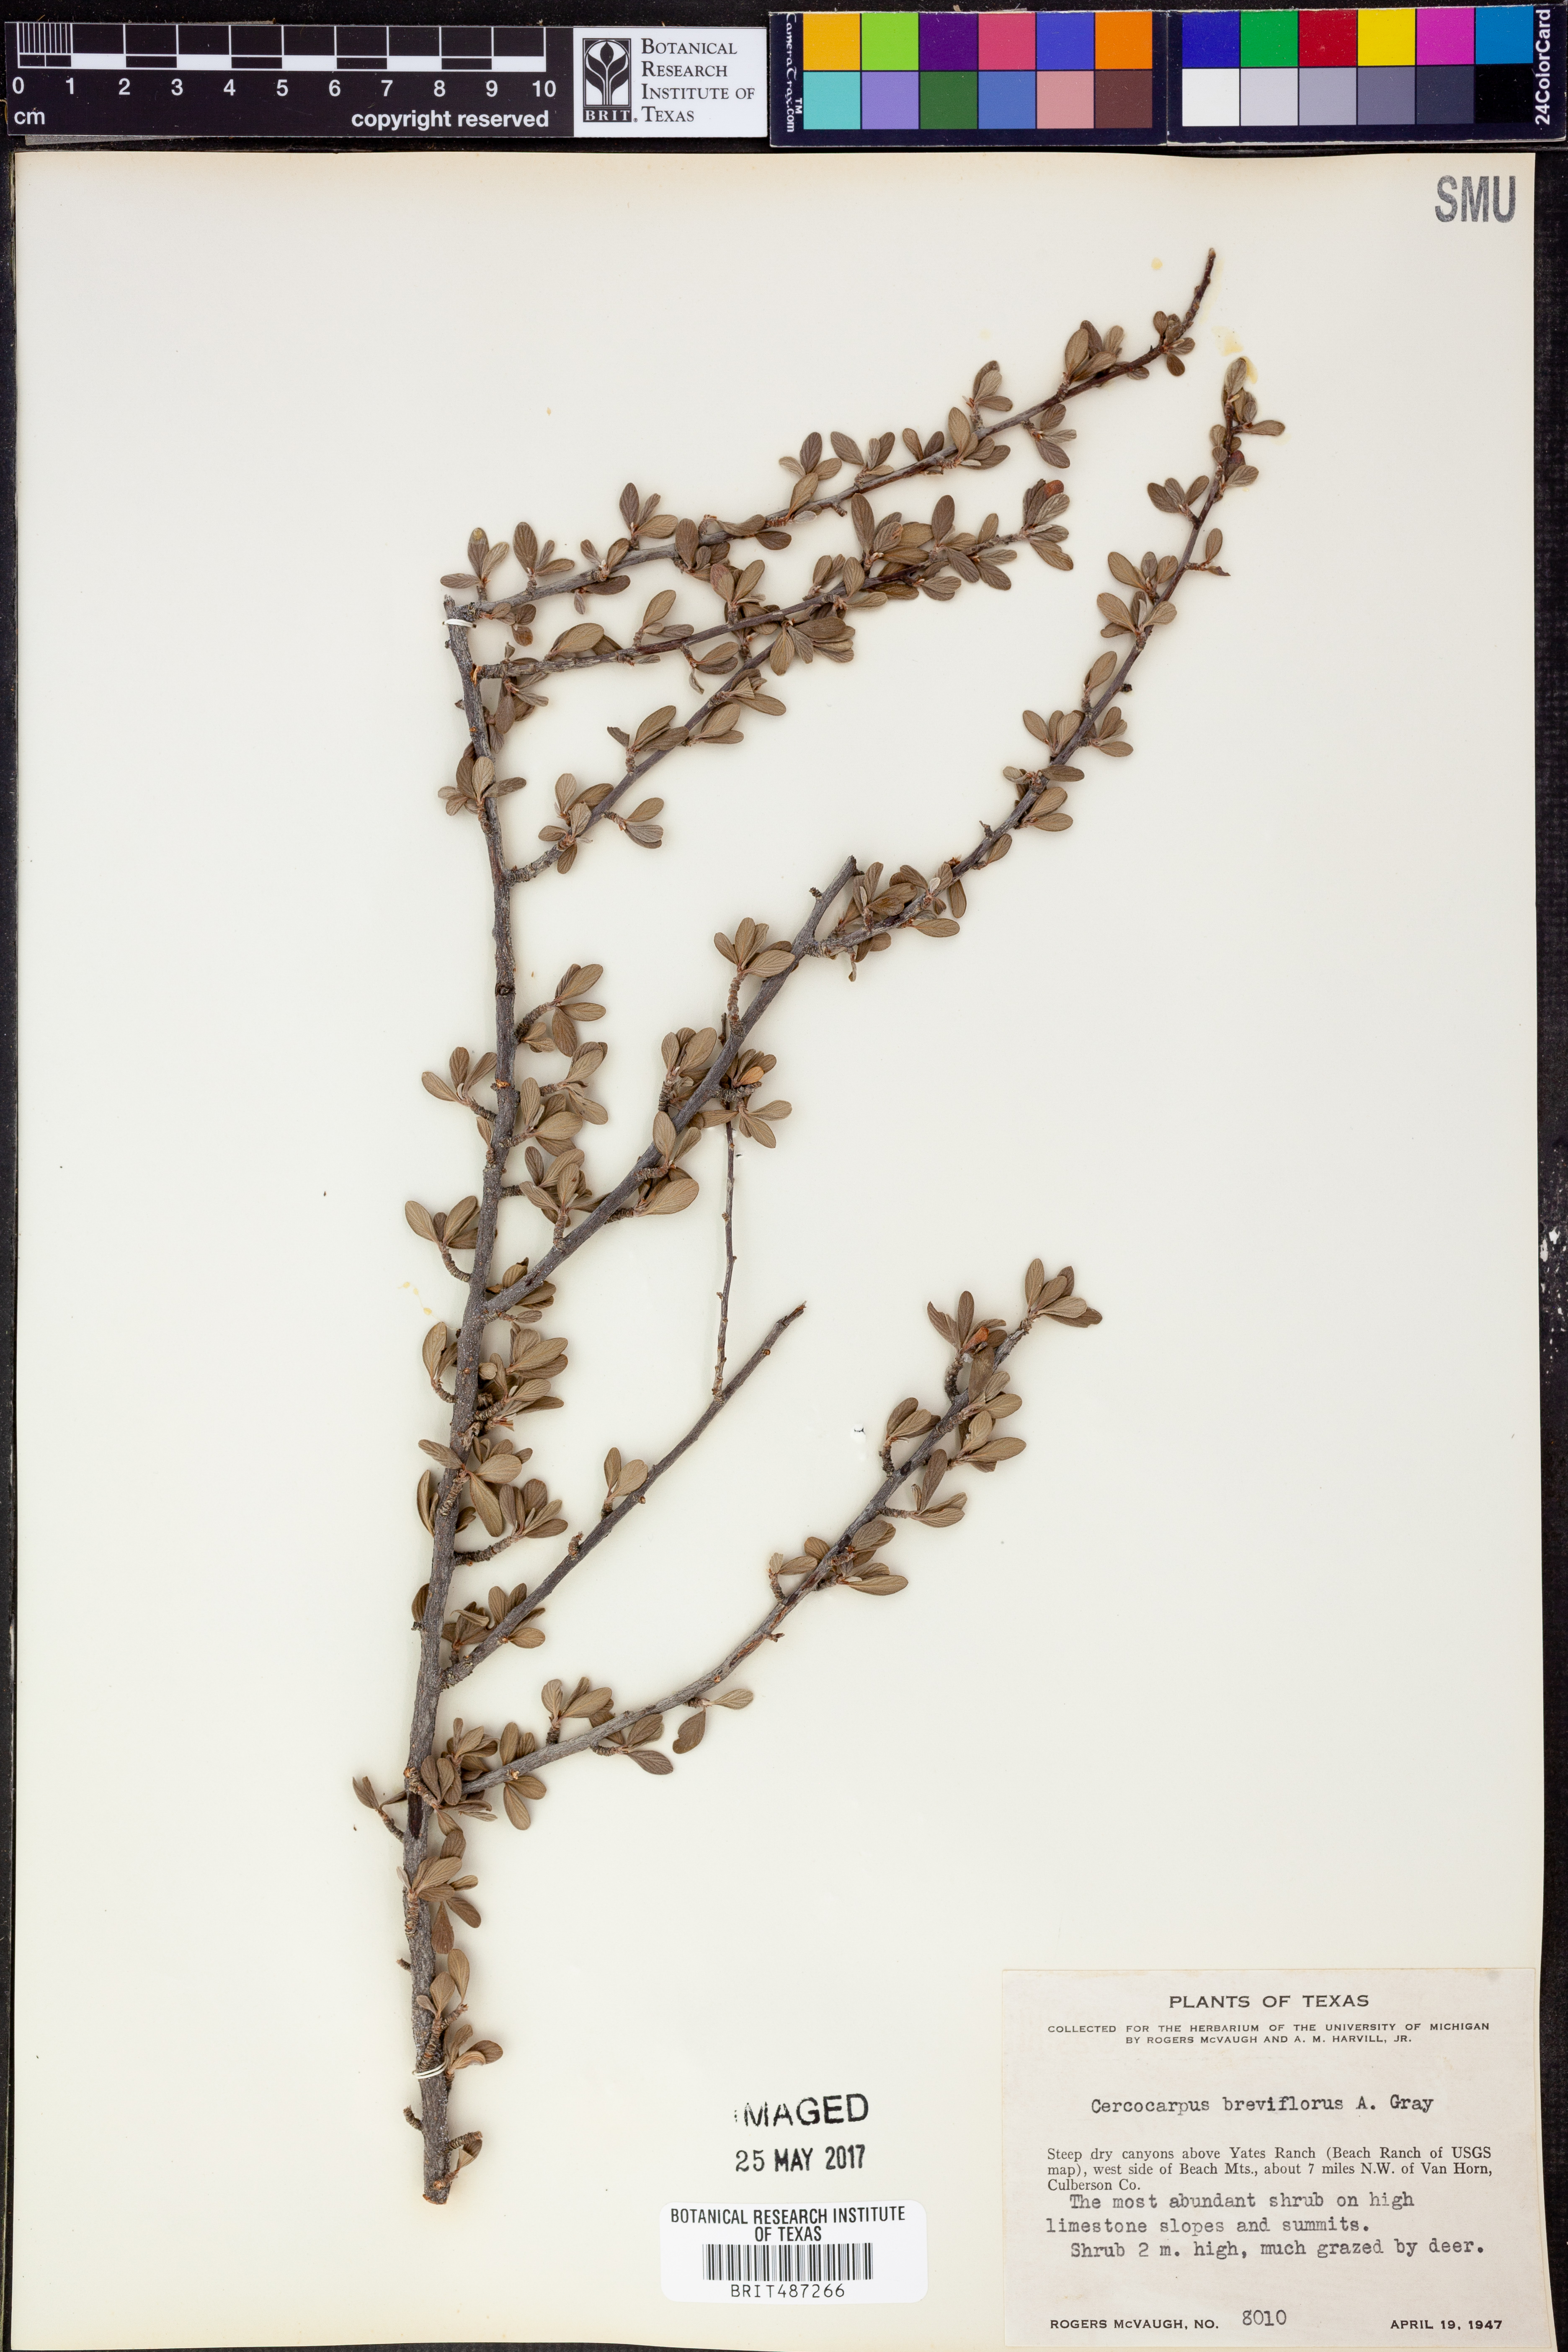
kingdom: Plantae
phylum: Tracheophyta
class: Magnoliopsida
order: Rosales
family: Rosaceae
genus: Cercocarpus
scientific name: Cercocarpus breviflorus
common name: Wright's mountain-mahogany
